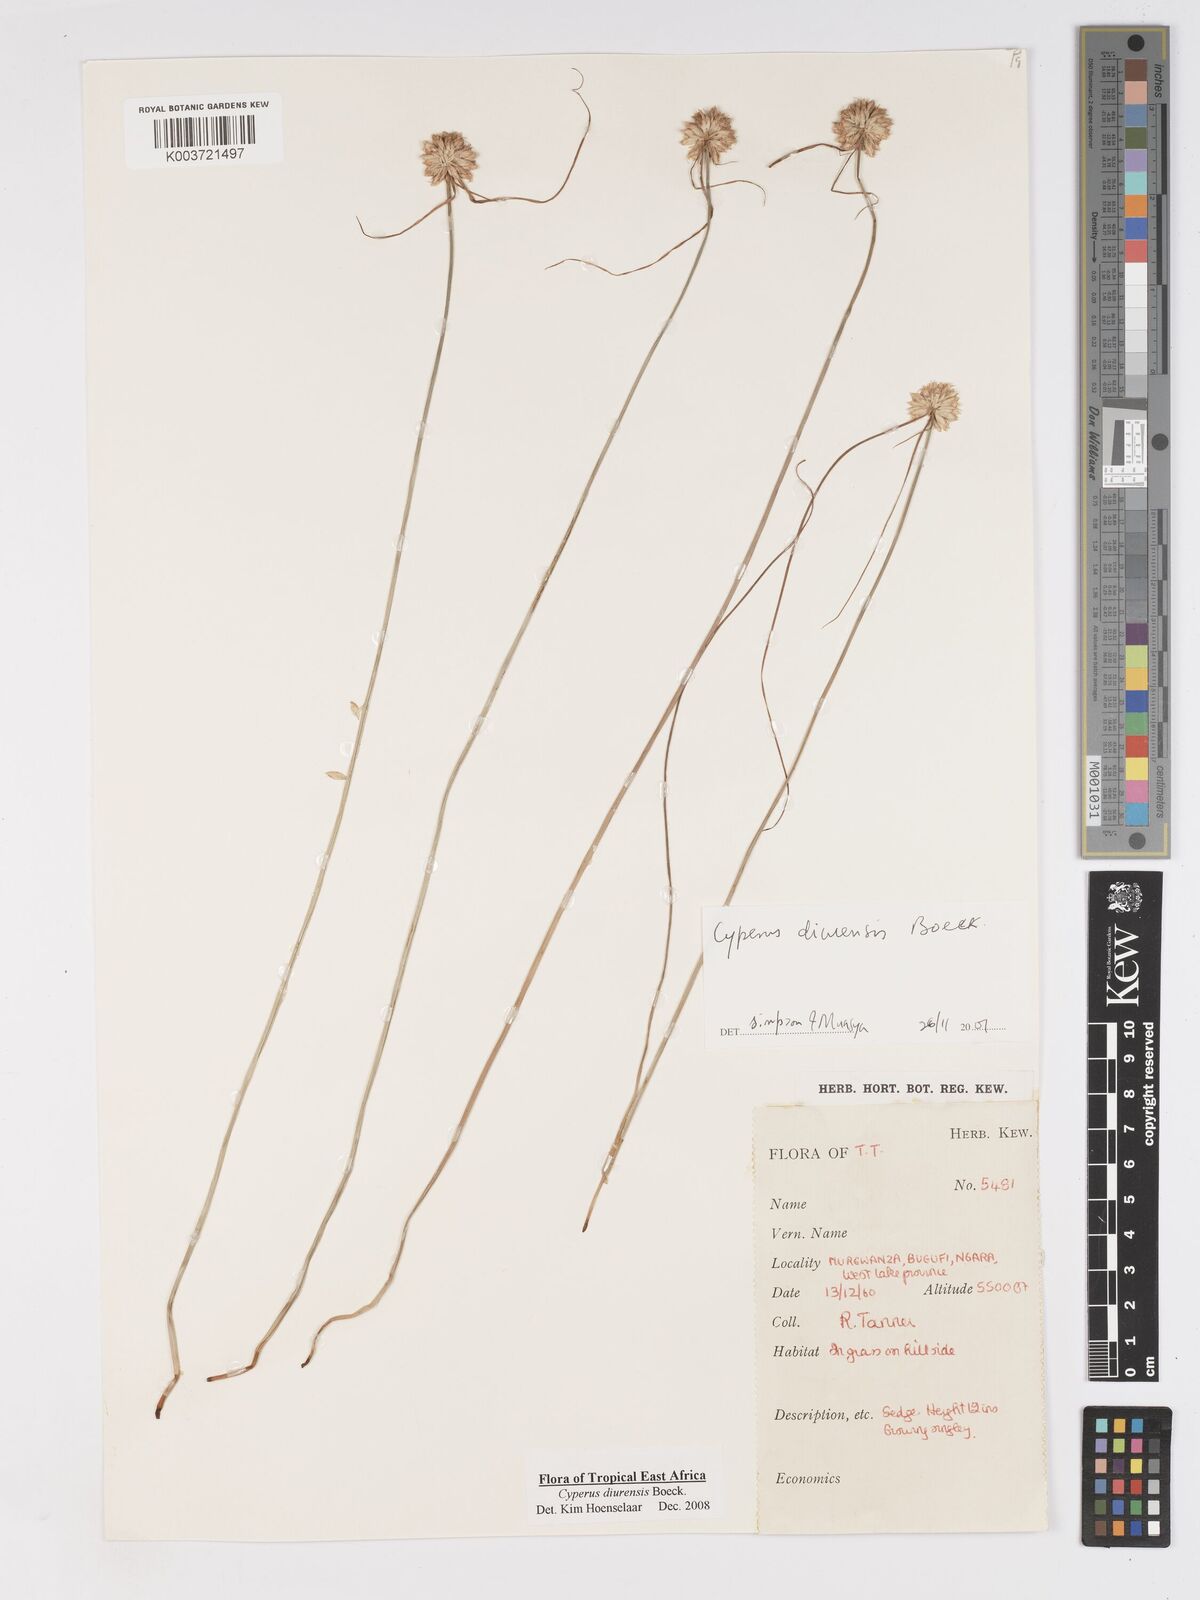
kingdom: Plantae
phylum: Tracheophyta
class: Liliopsida
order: Poales
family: Cyperaceae
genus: Cyperus
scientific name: Cyperus diurensis
